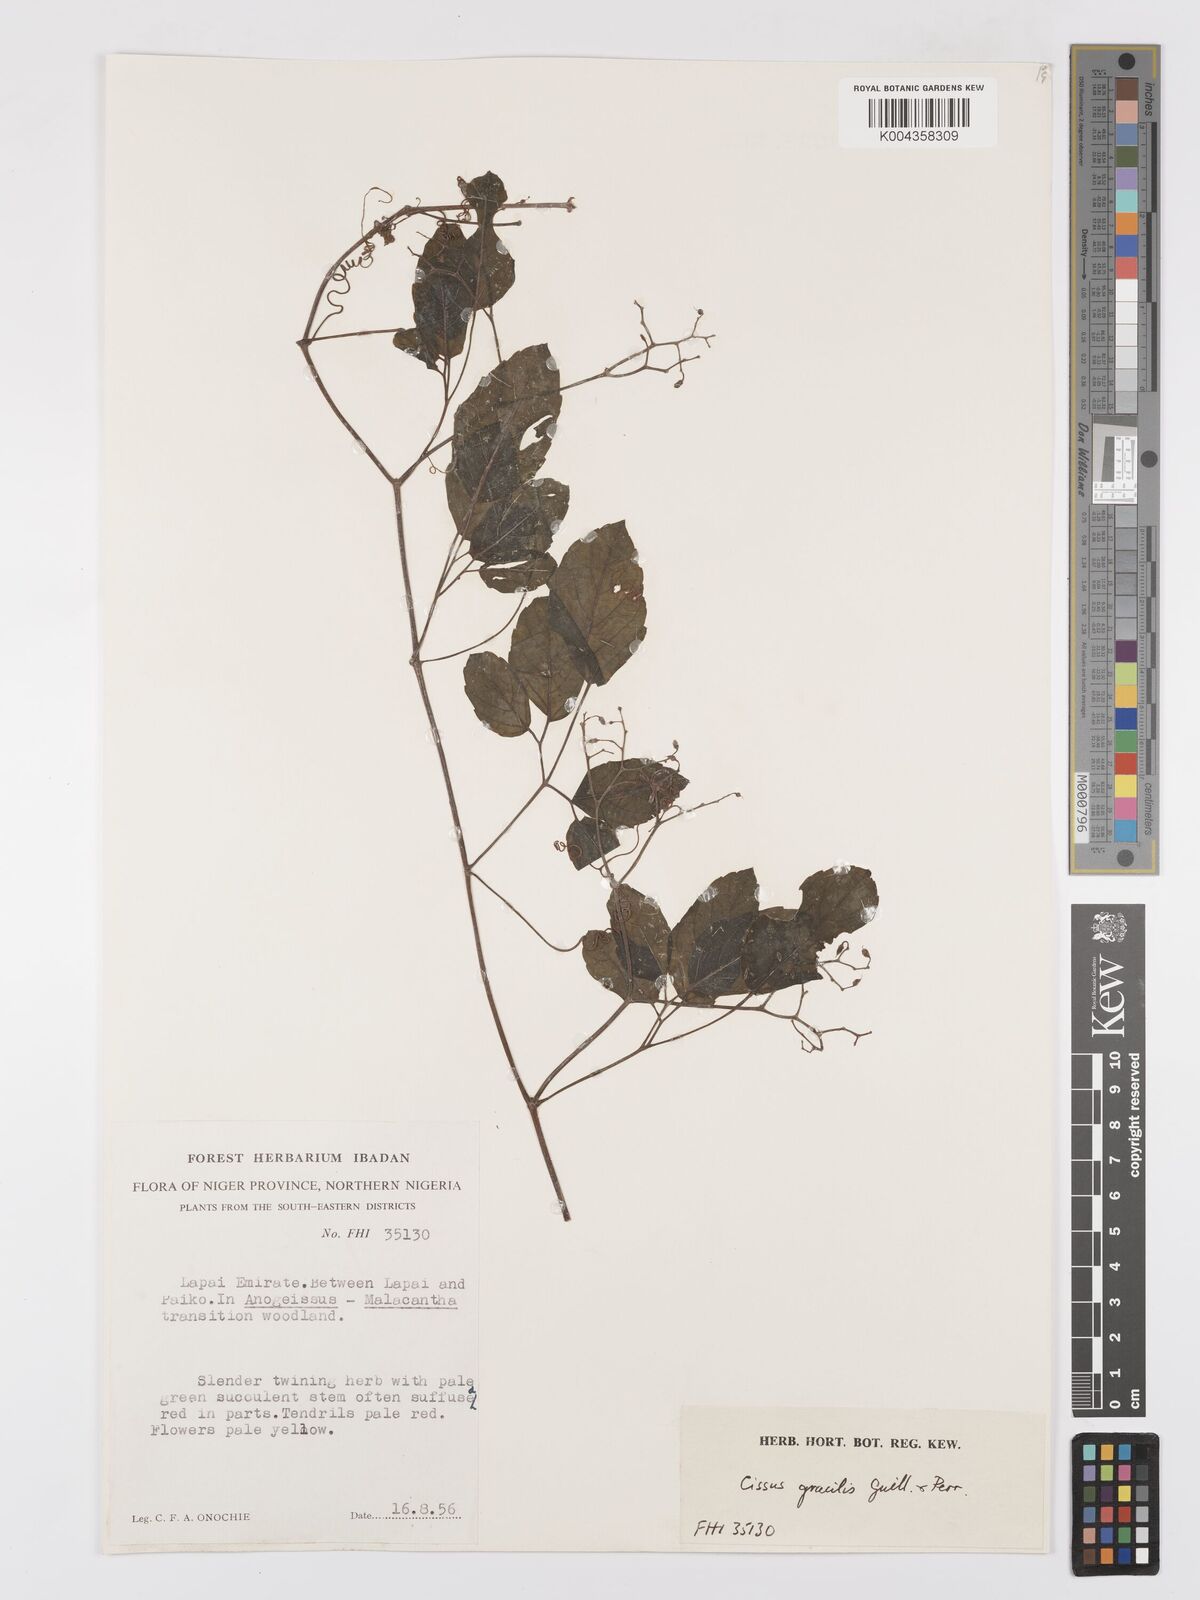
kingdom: Plantae
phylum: Tracheophyta
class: Magnoliopsida
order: Vitales
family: Vitaceae
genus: Afrocayratia
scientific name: Afrocayratia gracilis
